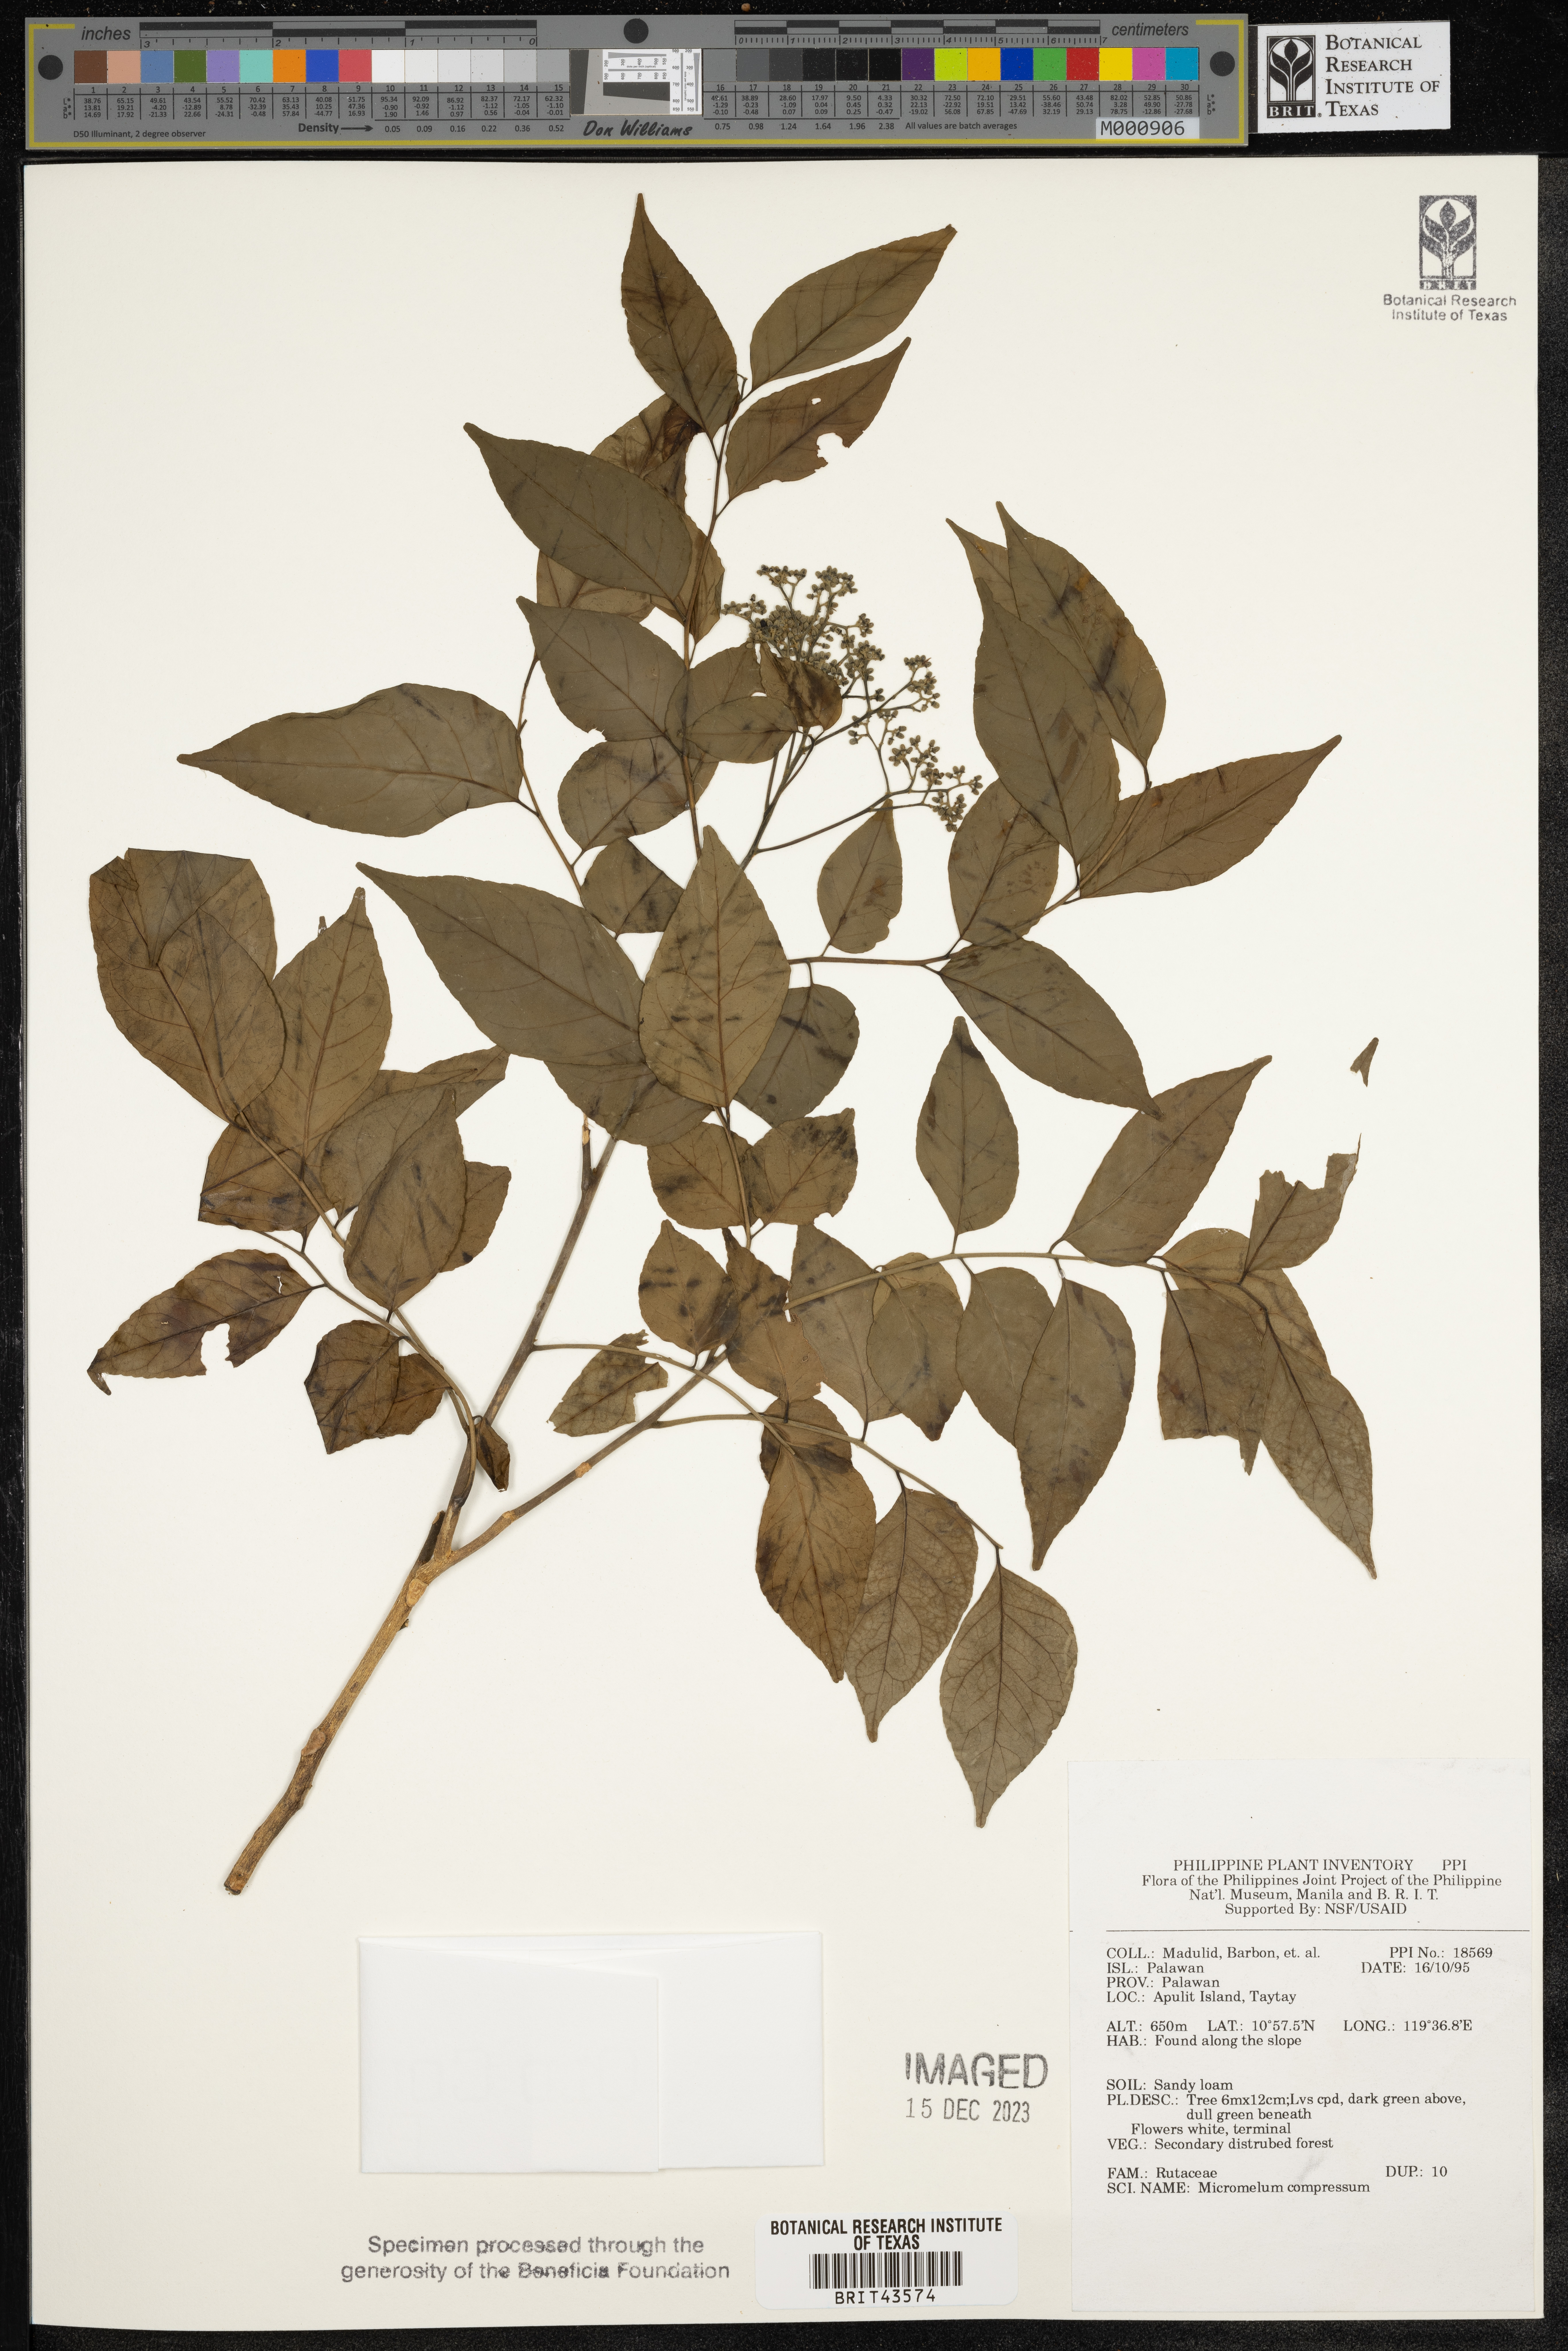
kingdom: Plantae
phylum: Tracheophyta
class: Magnoliopsida
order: Sapindales
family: Rutaceae
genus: Micromelum
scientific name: Micromelum compressum
